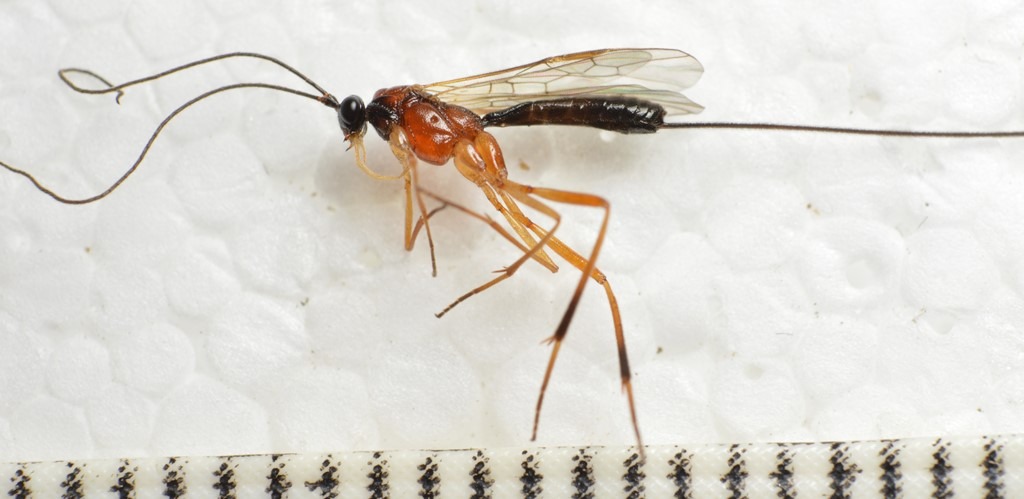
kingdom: Animalia
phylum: Arthropoda
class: Insecta
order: Hymenoptera
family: Braconidae
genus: Macrocentrus
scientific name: Macrocentrus nitidus
